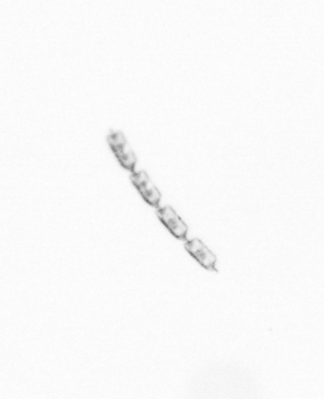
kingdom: Chromista
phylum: Ochrophyta
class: Bacillariophyceae
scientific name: Bacillariophyceae
